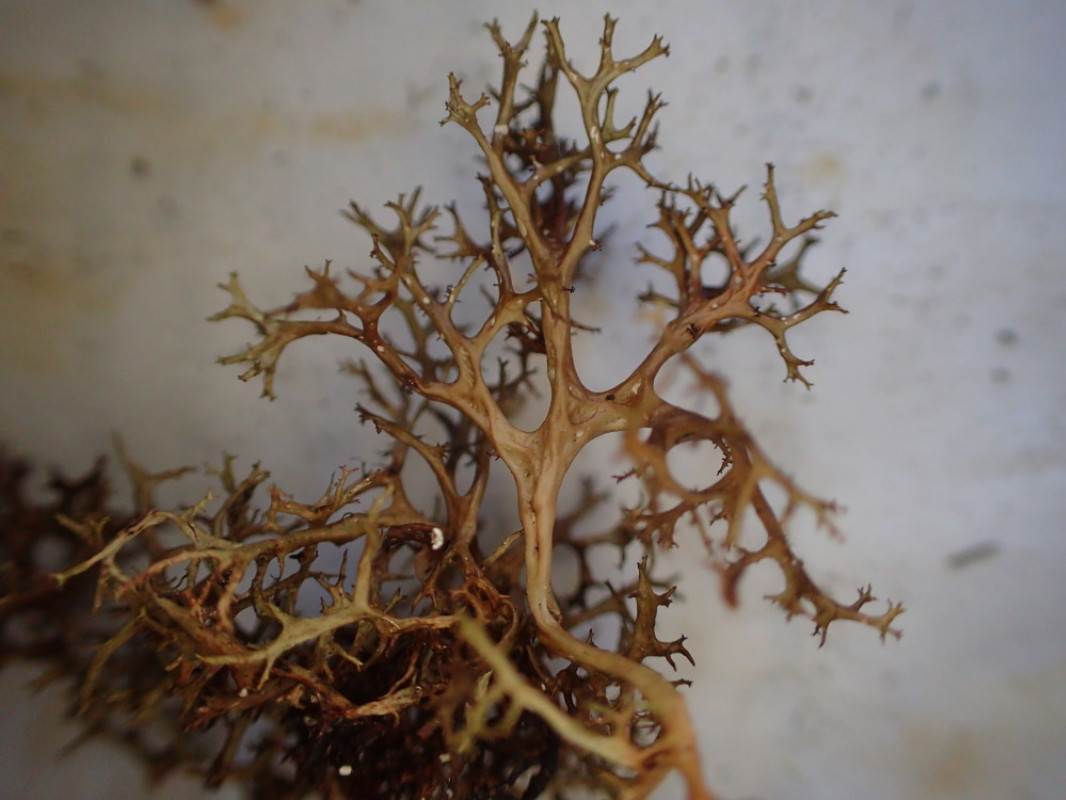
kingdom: Fungi
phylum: Ascomycota
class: Lecanoromycetes
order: Lecanorales
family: Parmeliaceae
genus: Cetraria
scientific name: Cetraria aculeata
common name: grubet tjørnelav
